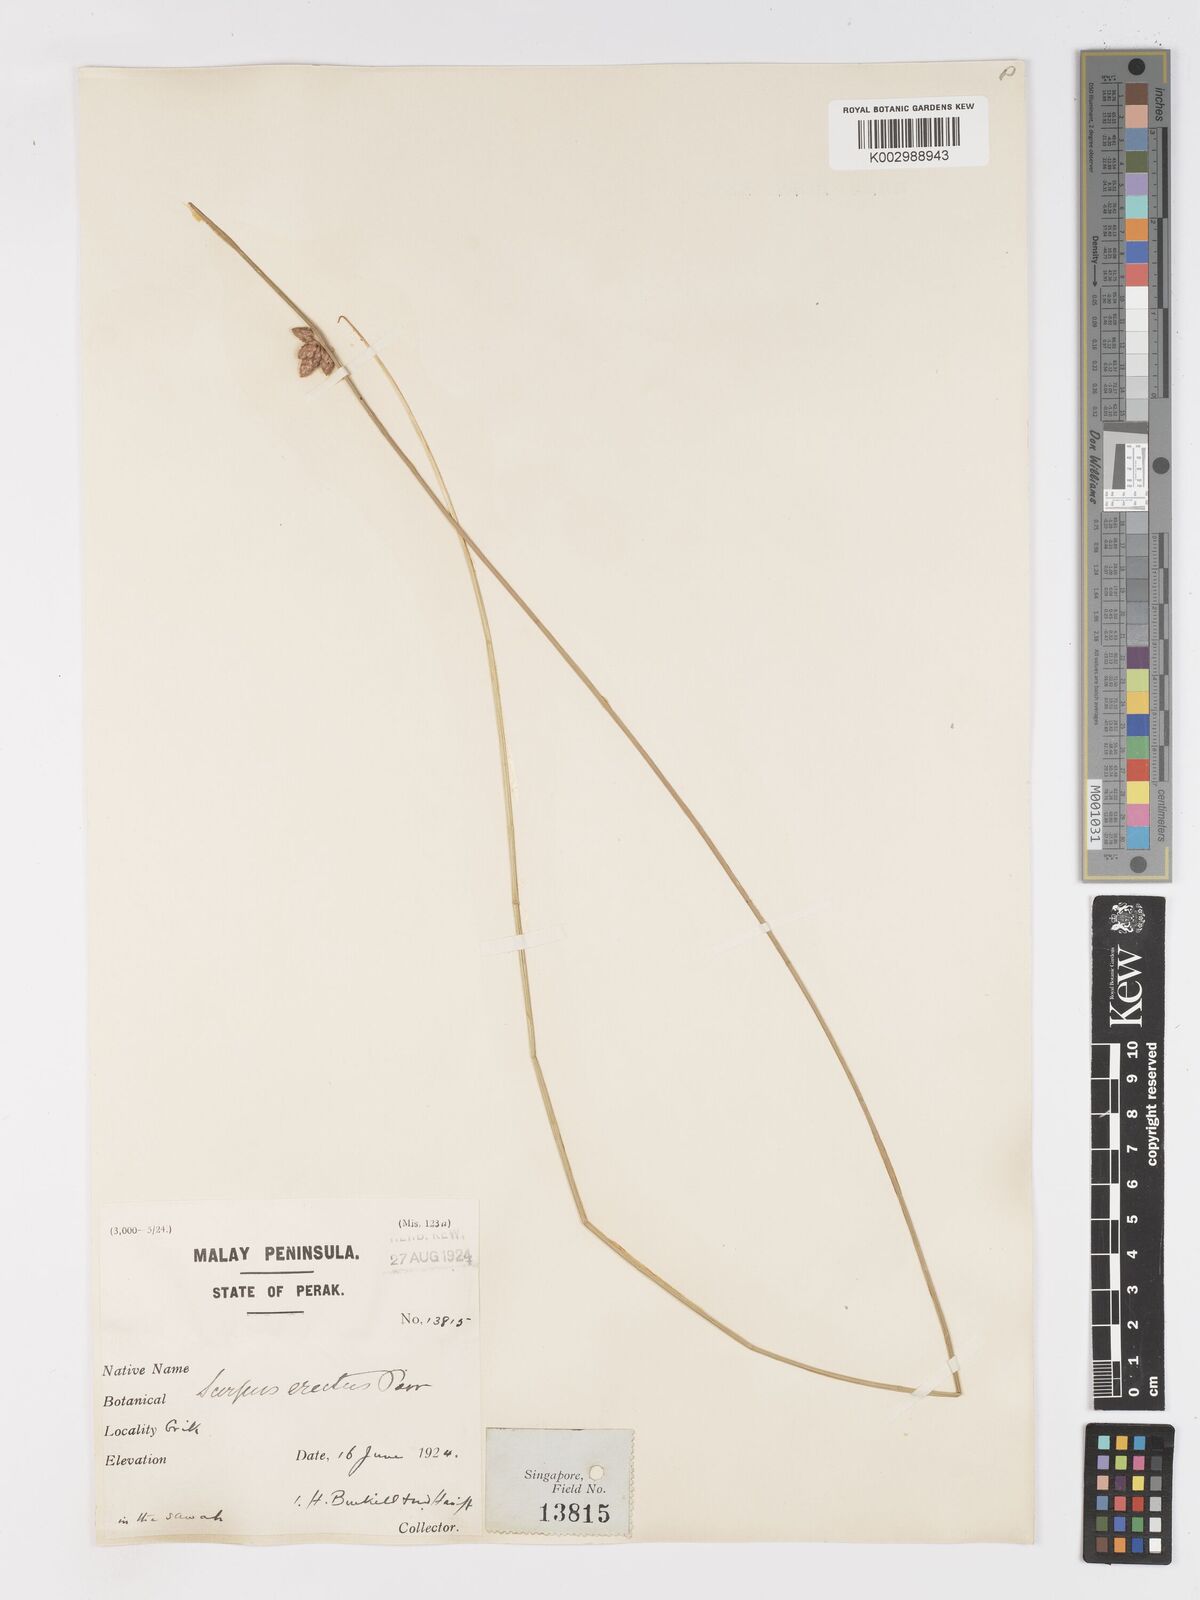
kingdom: Plantae
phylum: Tracheophyta
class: Liliopsida
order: Poales
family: Cyperaceae
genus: Schoenoplectiella
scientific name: Schoenoplectiella juncoides
